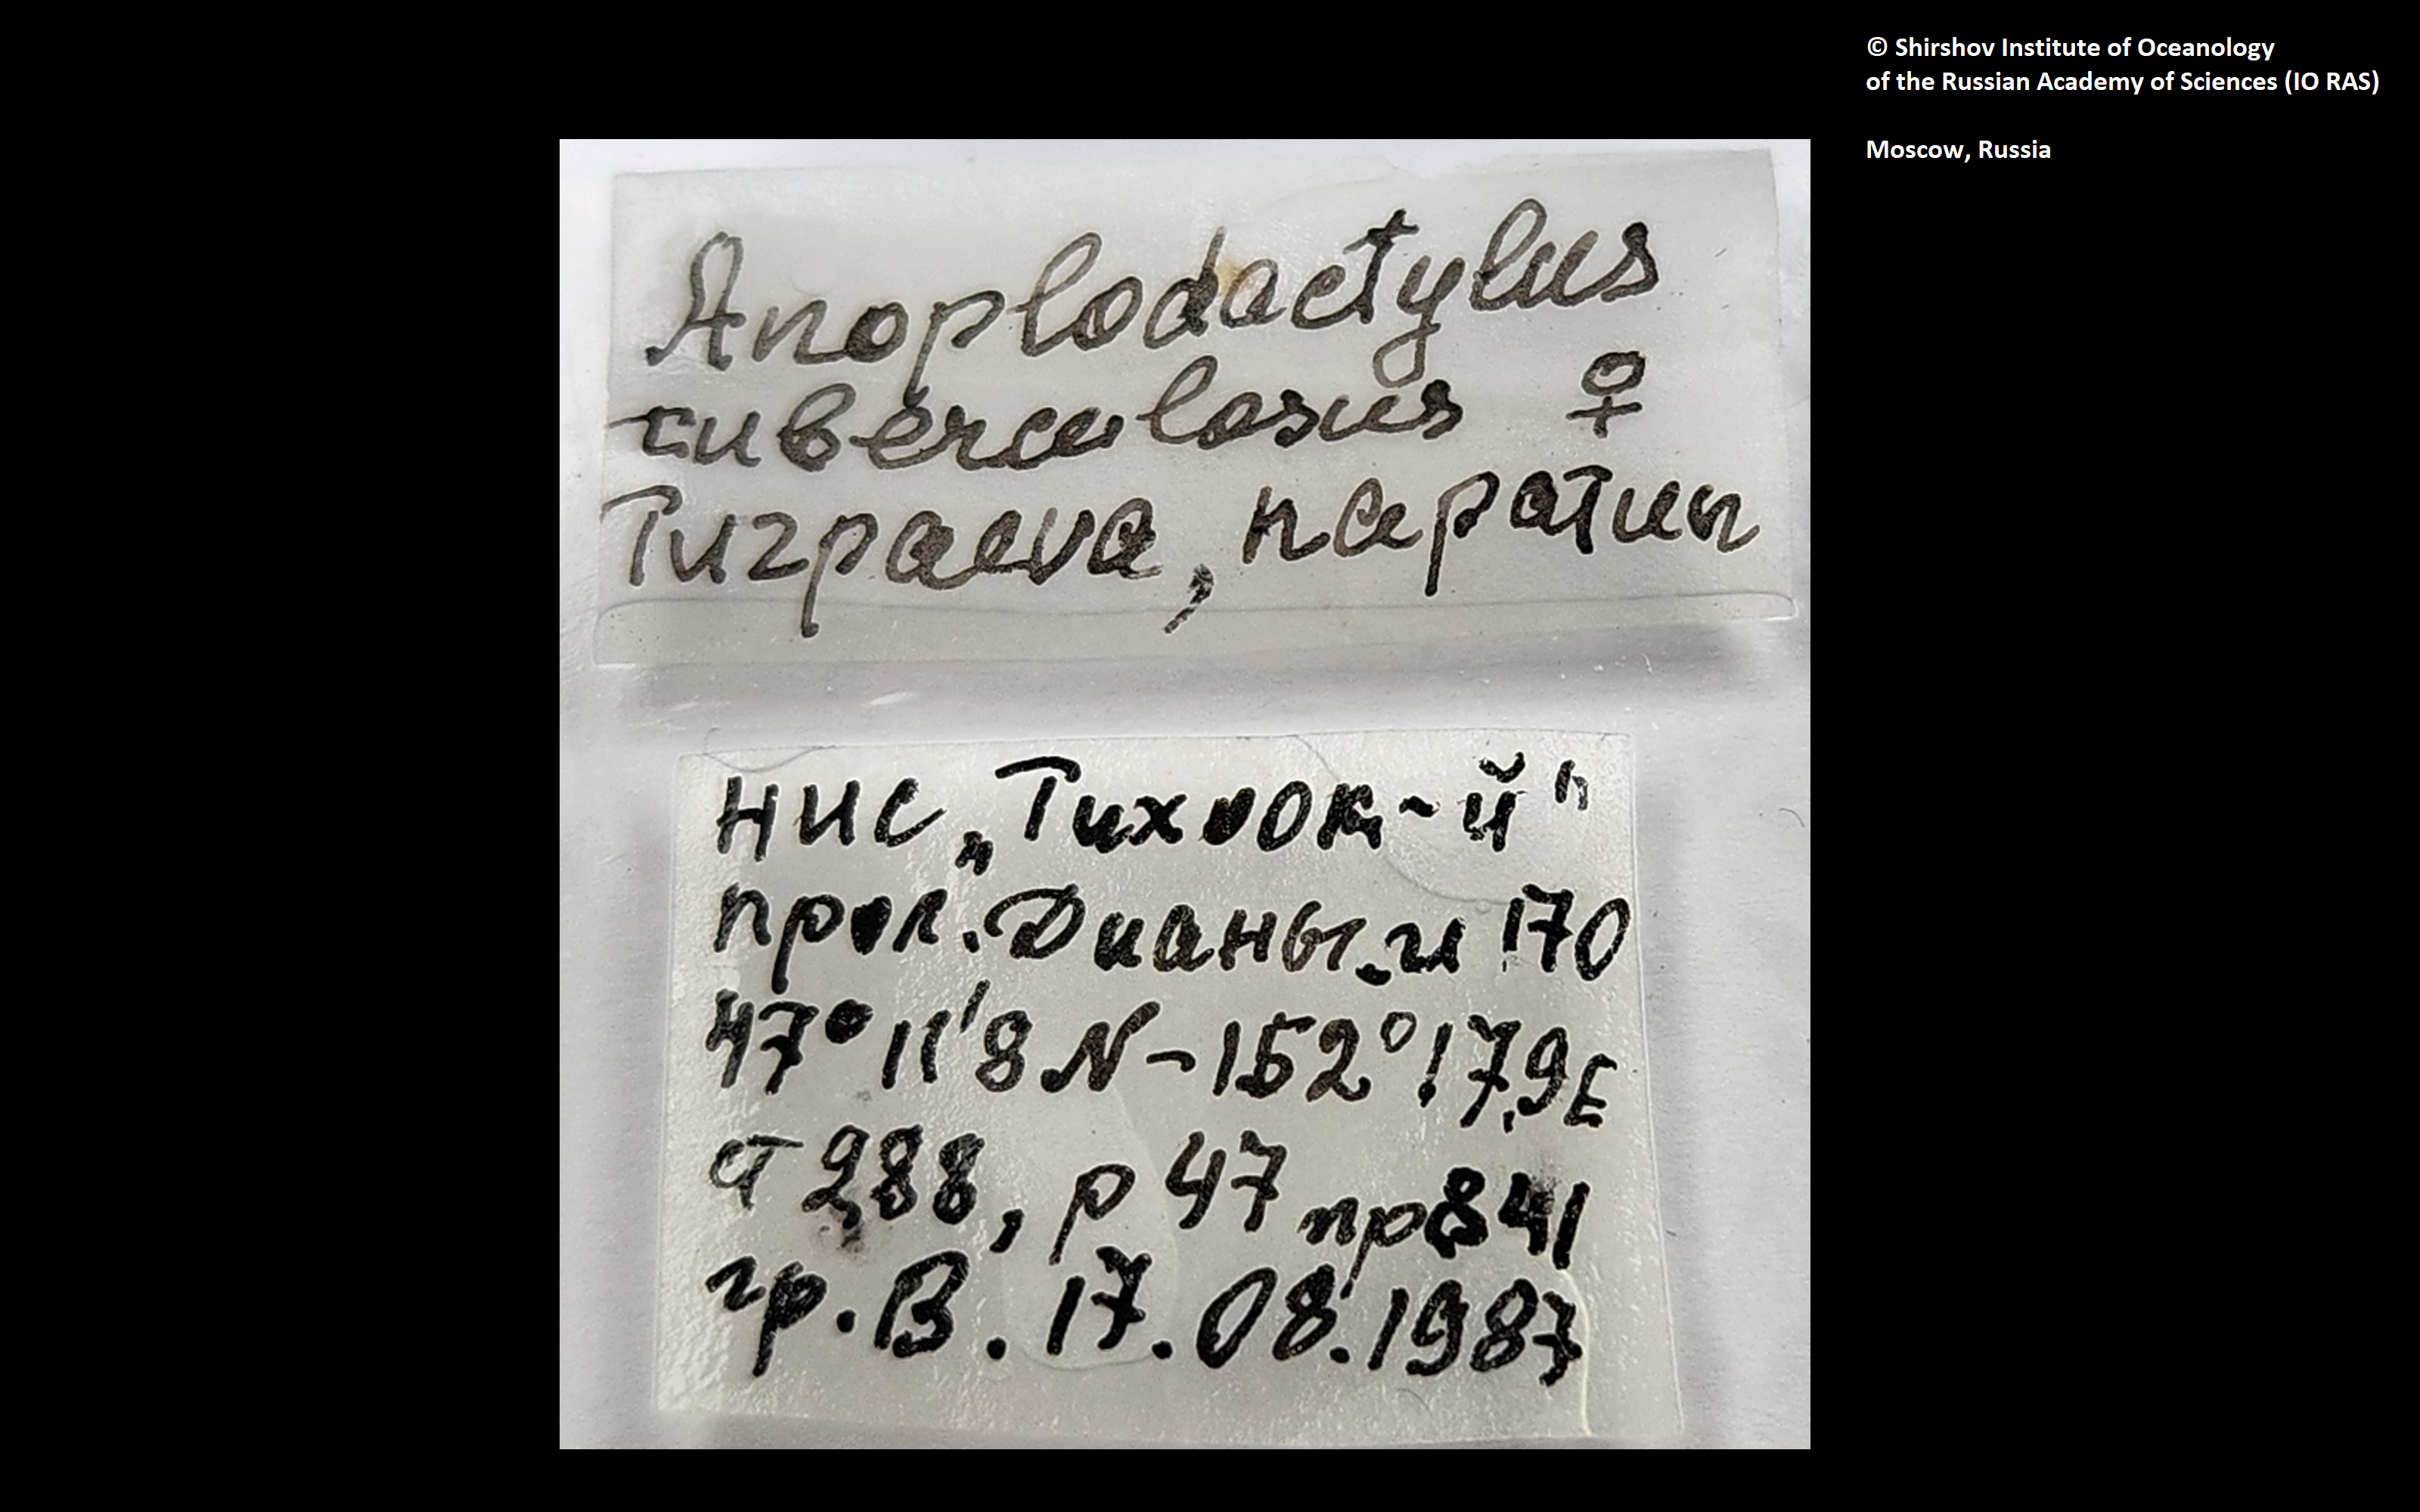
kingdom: Animalia
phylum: Arthropoda
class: Pycnogonida
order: Pantopoda
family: Phoxichilidiidae
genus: Anoplodactylus
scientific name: Anoplodactylus tuberculosus
